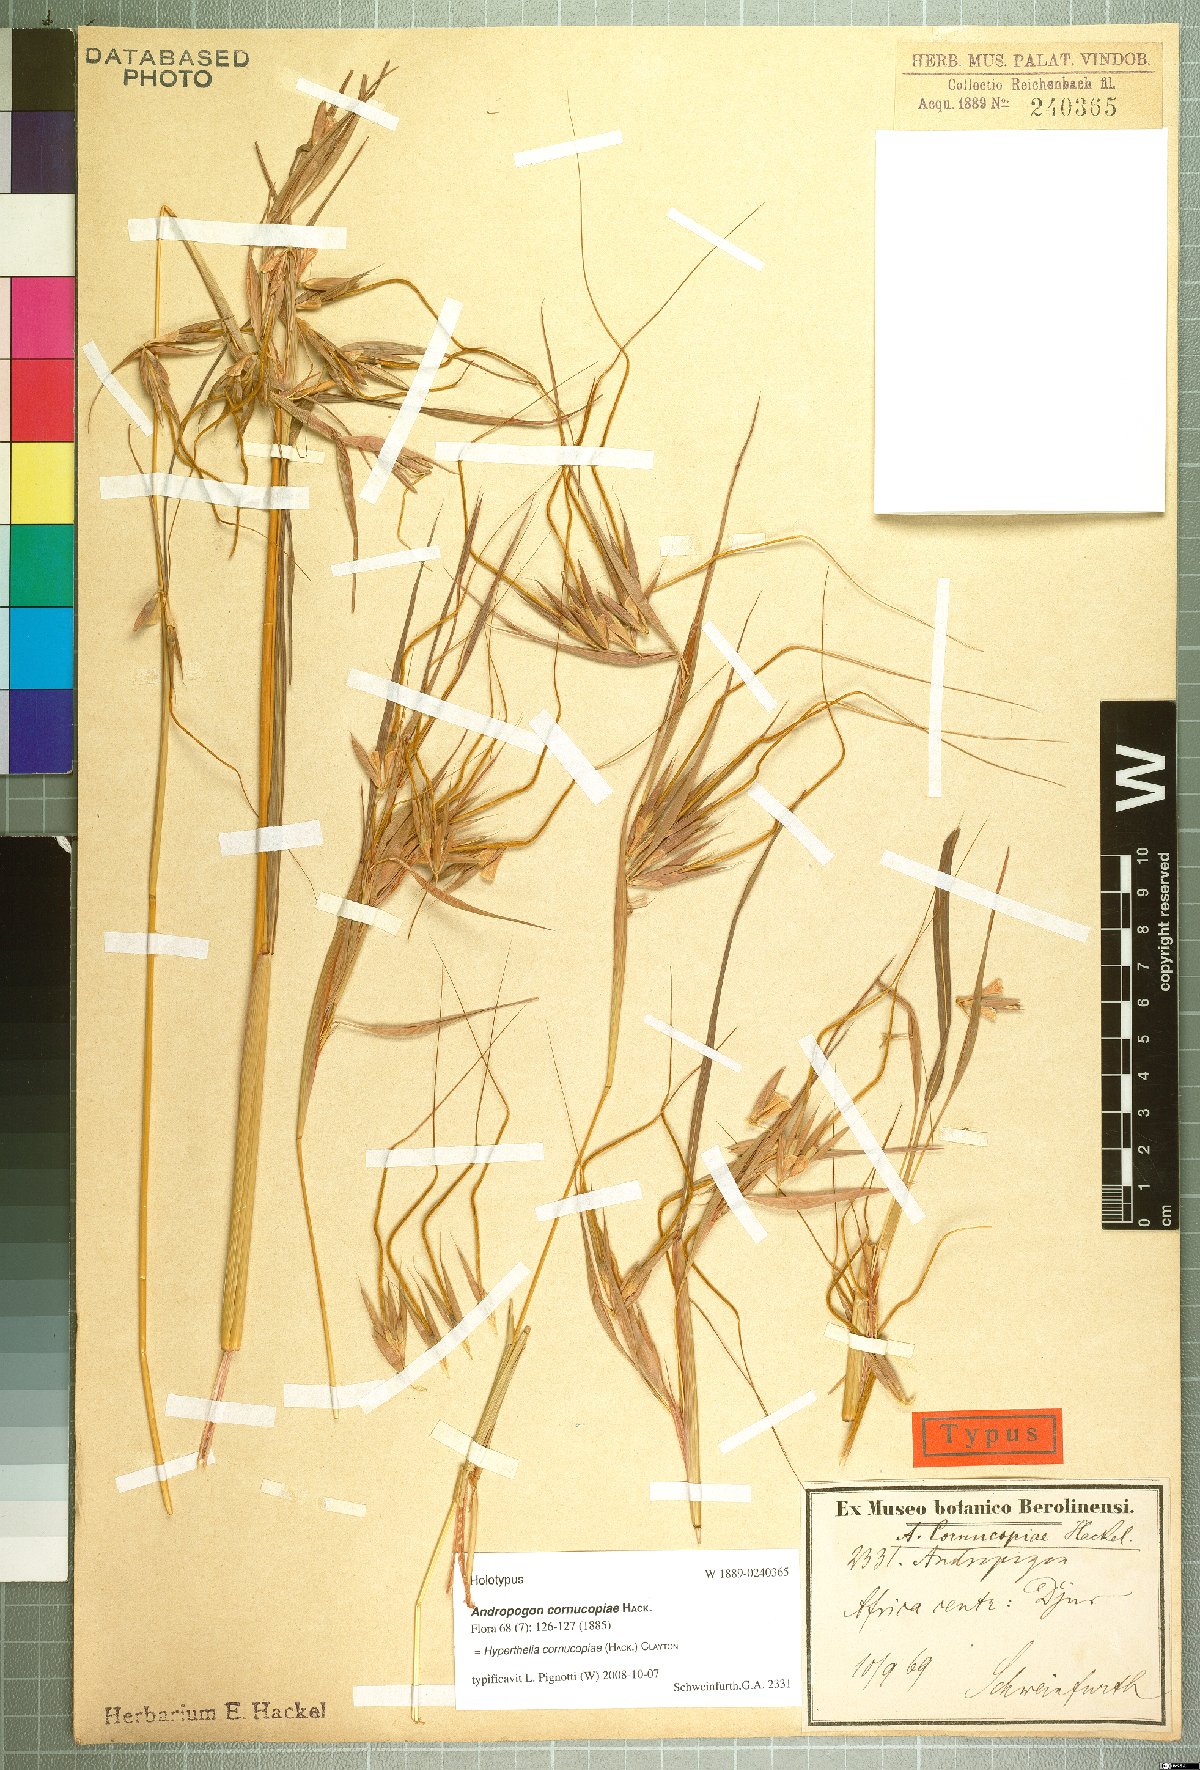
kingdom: Plantae
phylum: Tracheophyta
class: Liliopsida
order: Poales
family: Poaceae
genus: Hyperthelia
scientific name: Hyperthelia cornucopiae
